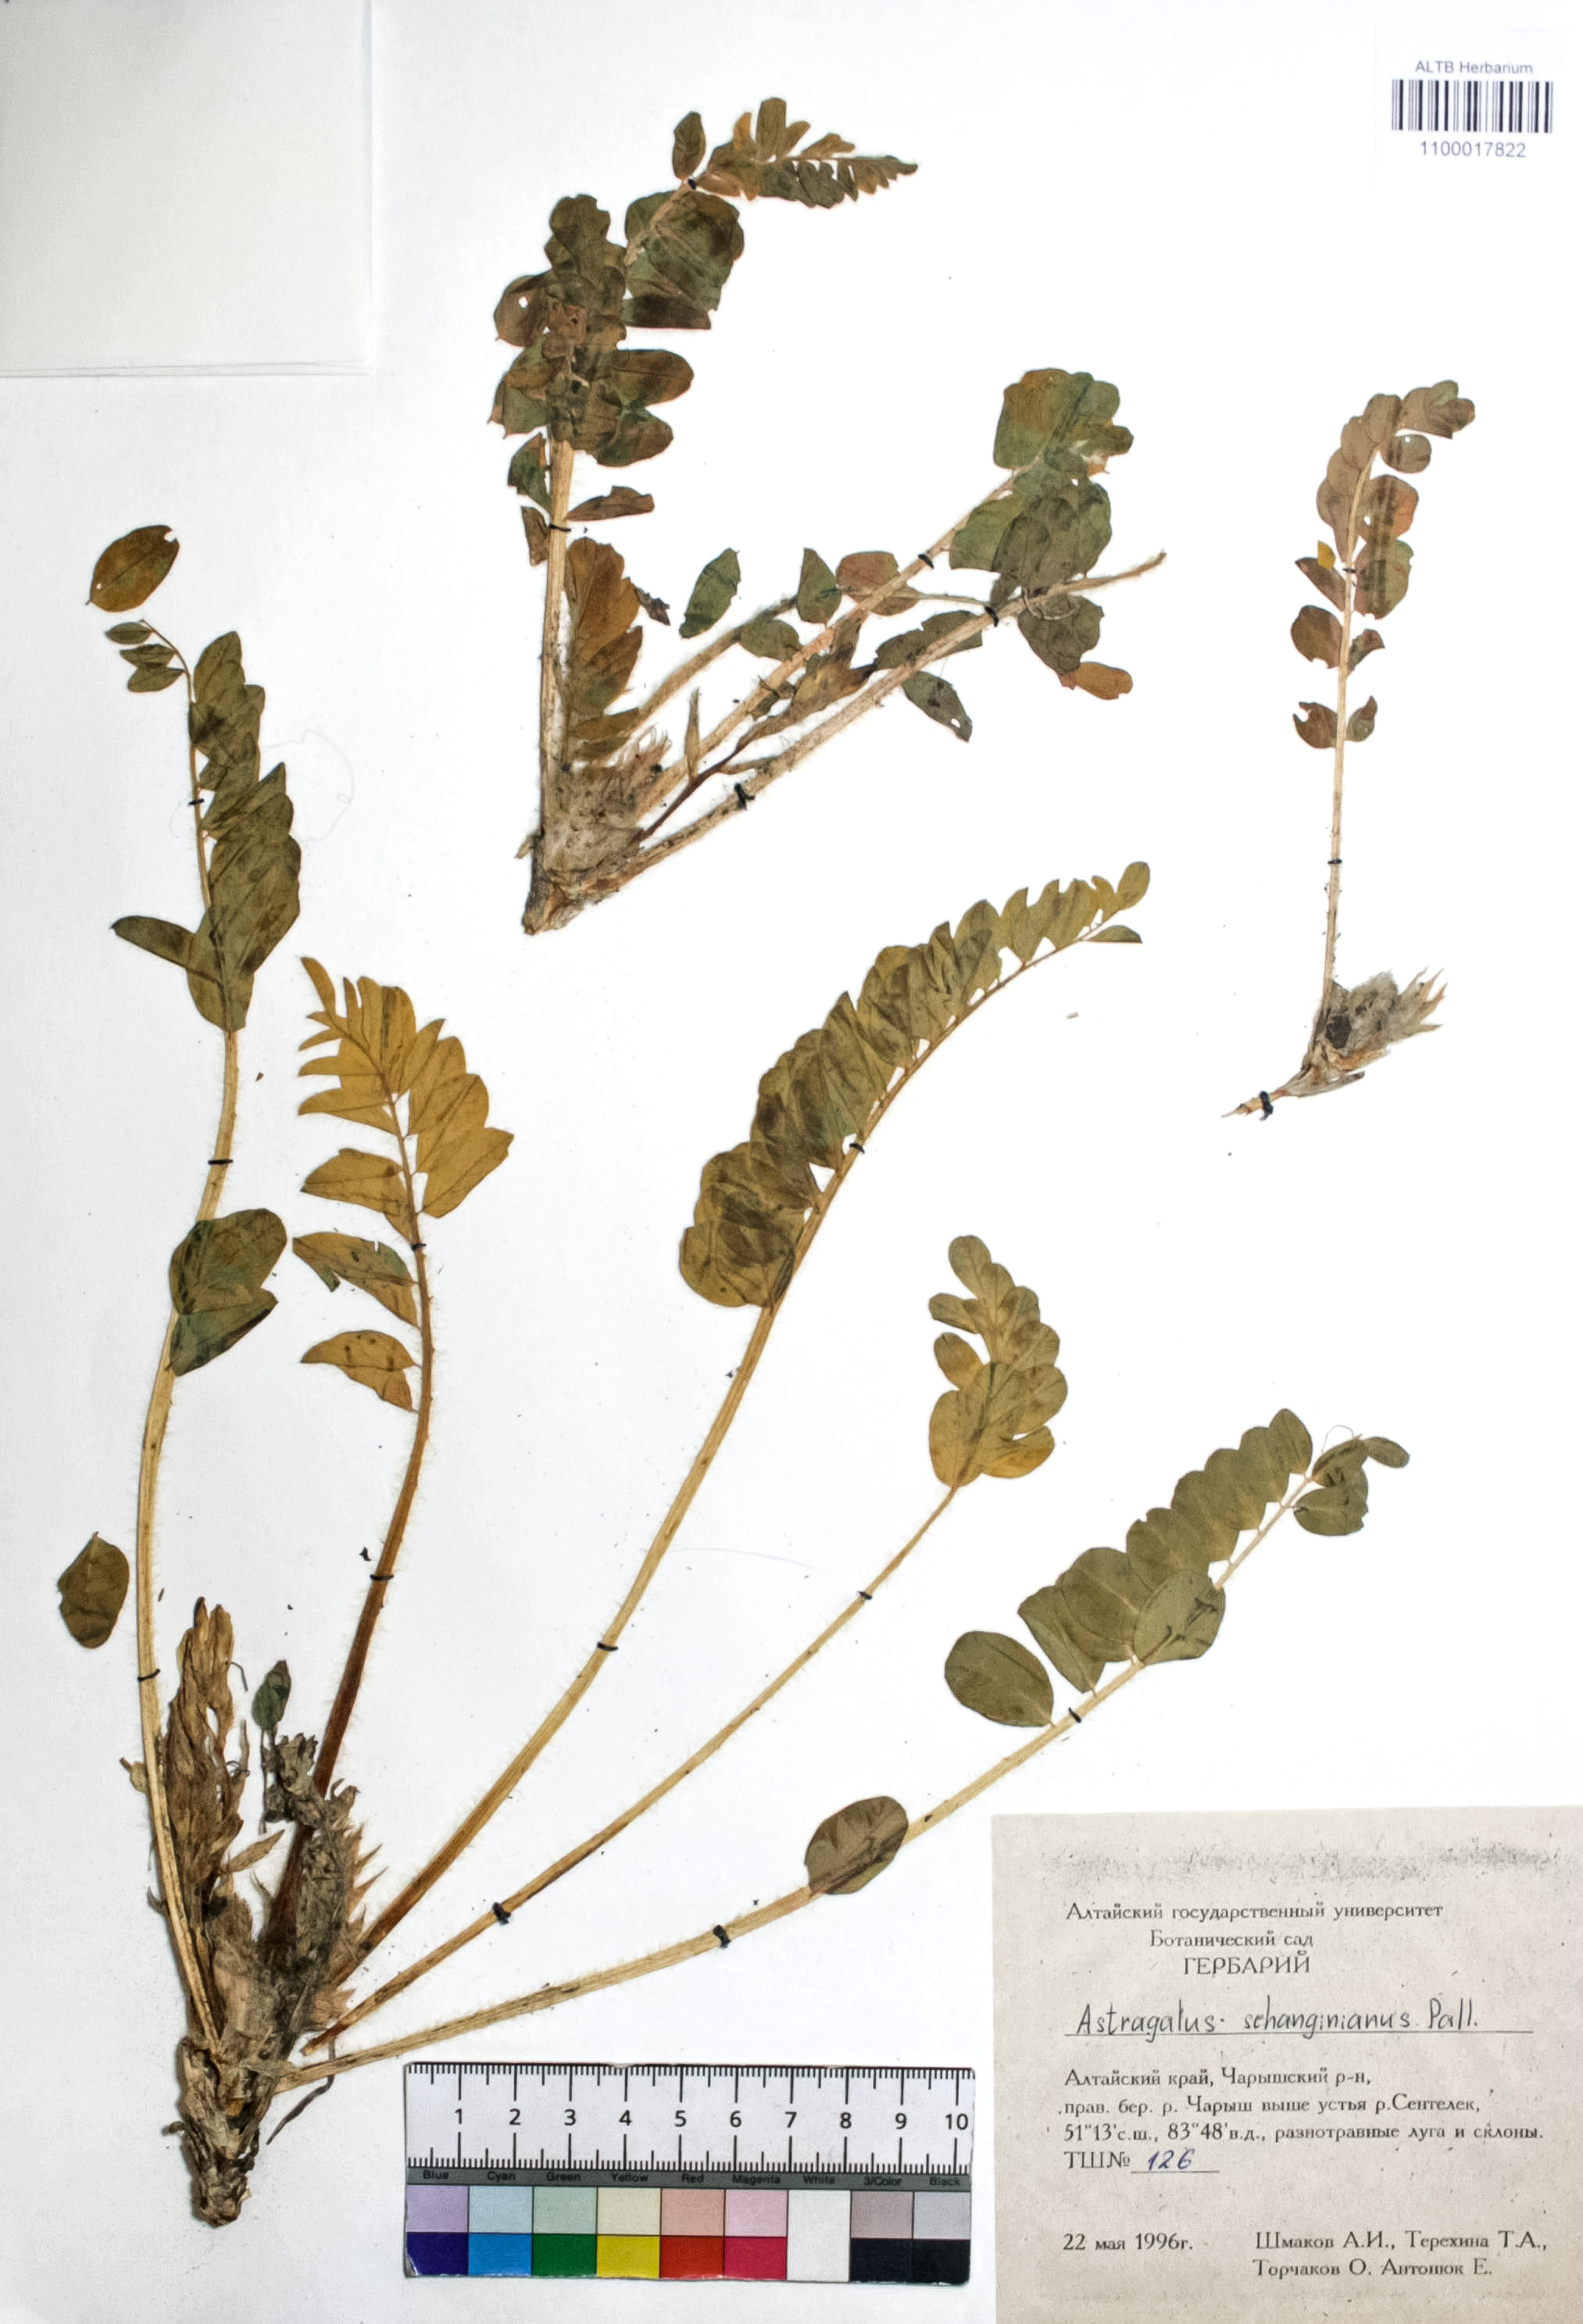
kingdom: Plantae
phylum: Tracheophyta
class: Magnoliopsida
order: Fabales
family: Fabaceae
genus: Astragalus
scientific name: Astragalus schanginianus
